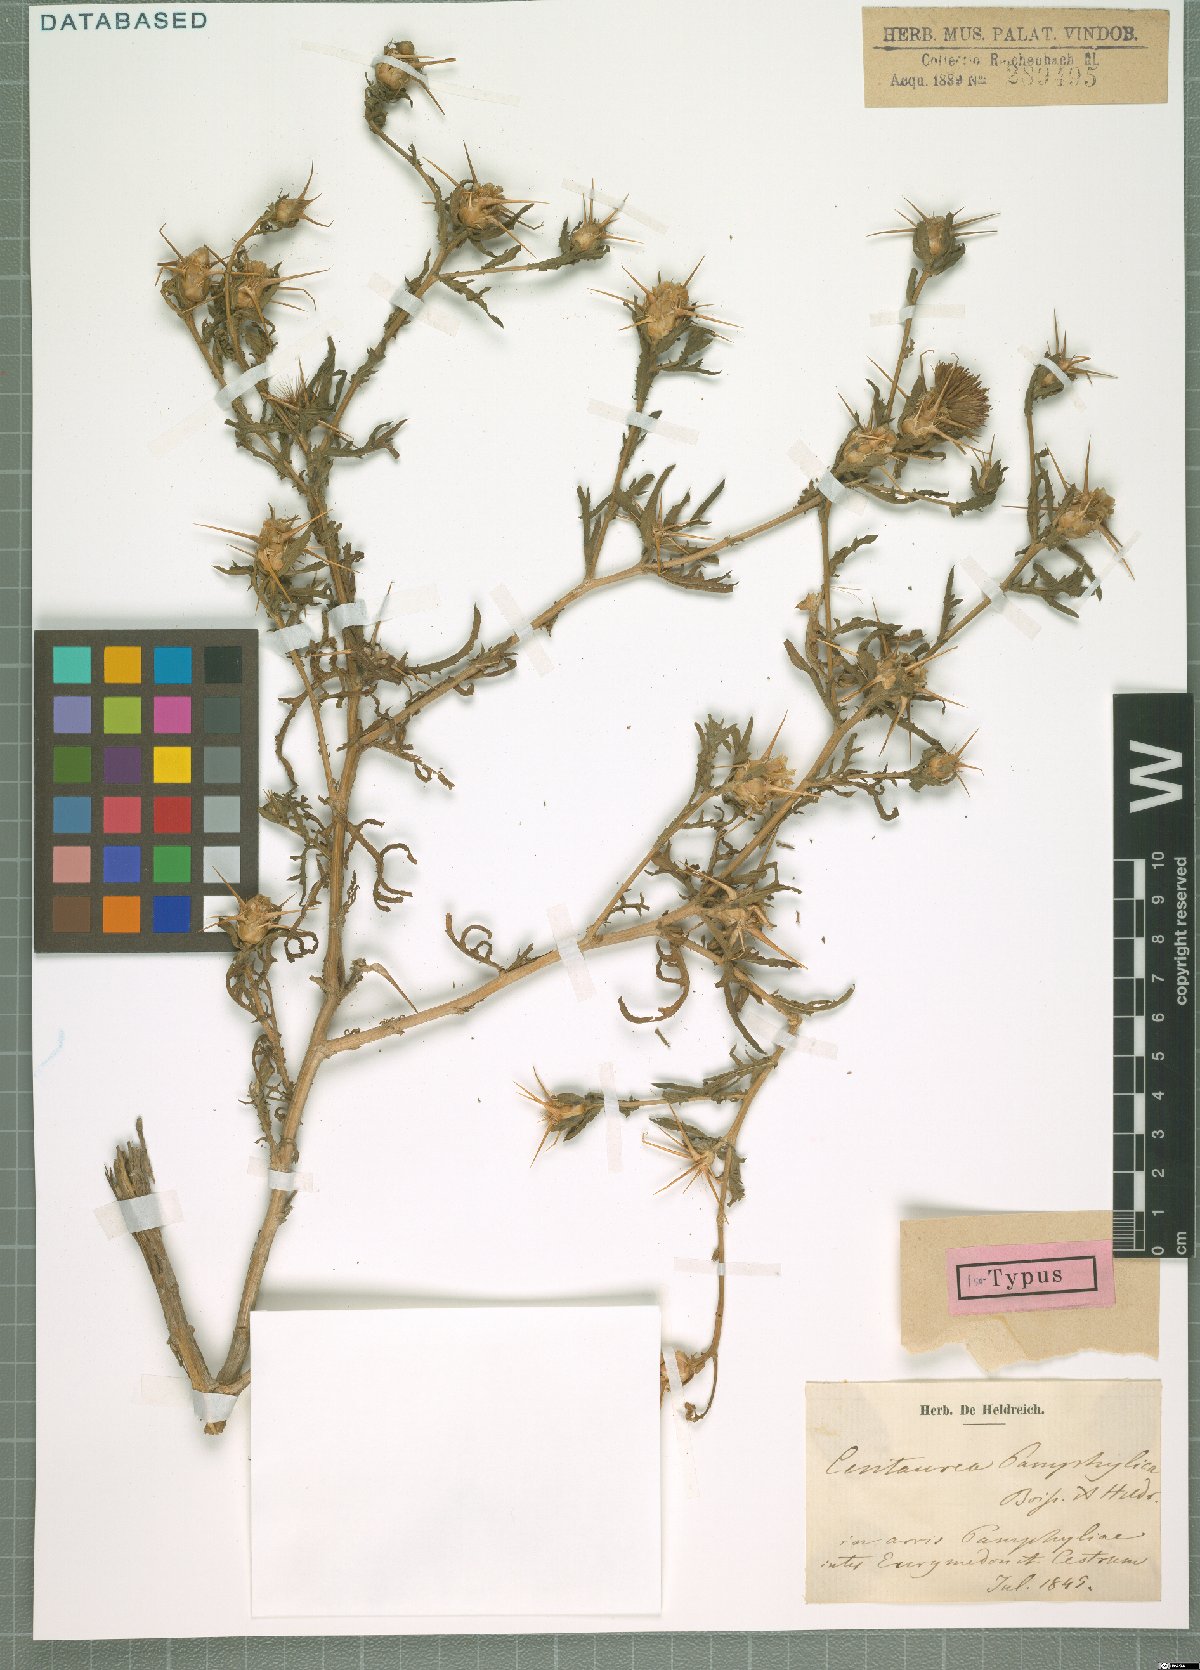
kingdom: Plantae
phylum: Tracheophyta
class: Magnoliopsida
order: Asterales
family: Asteraceae
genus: Centaurea
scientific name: Centaurea pamphylica
